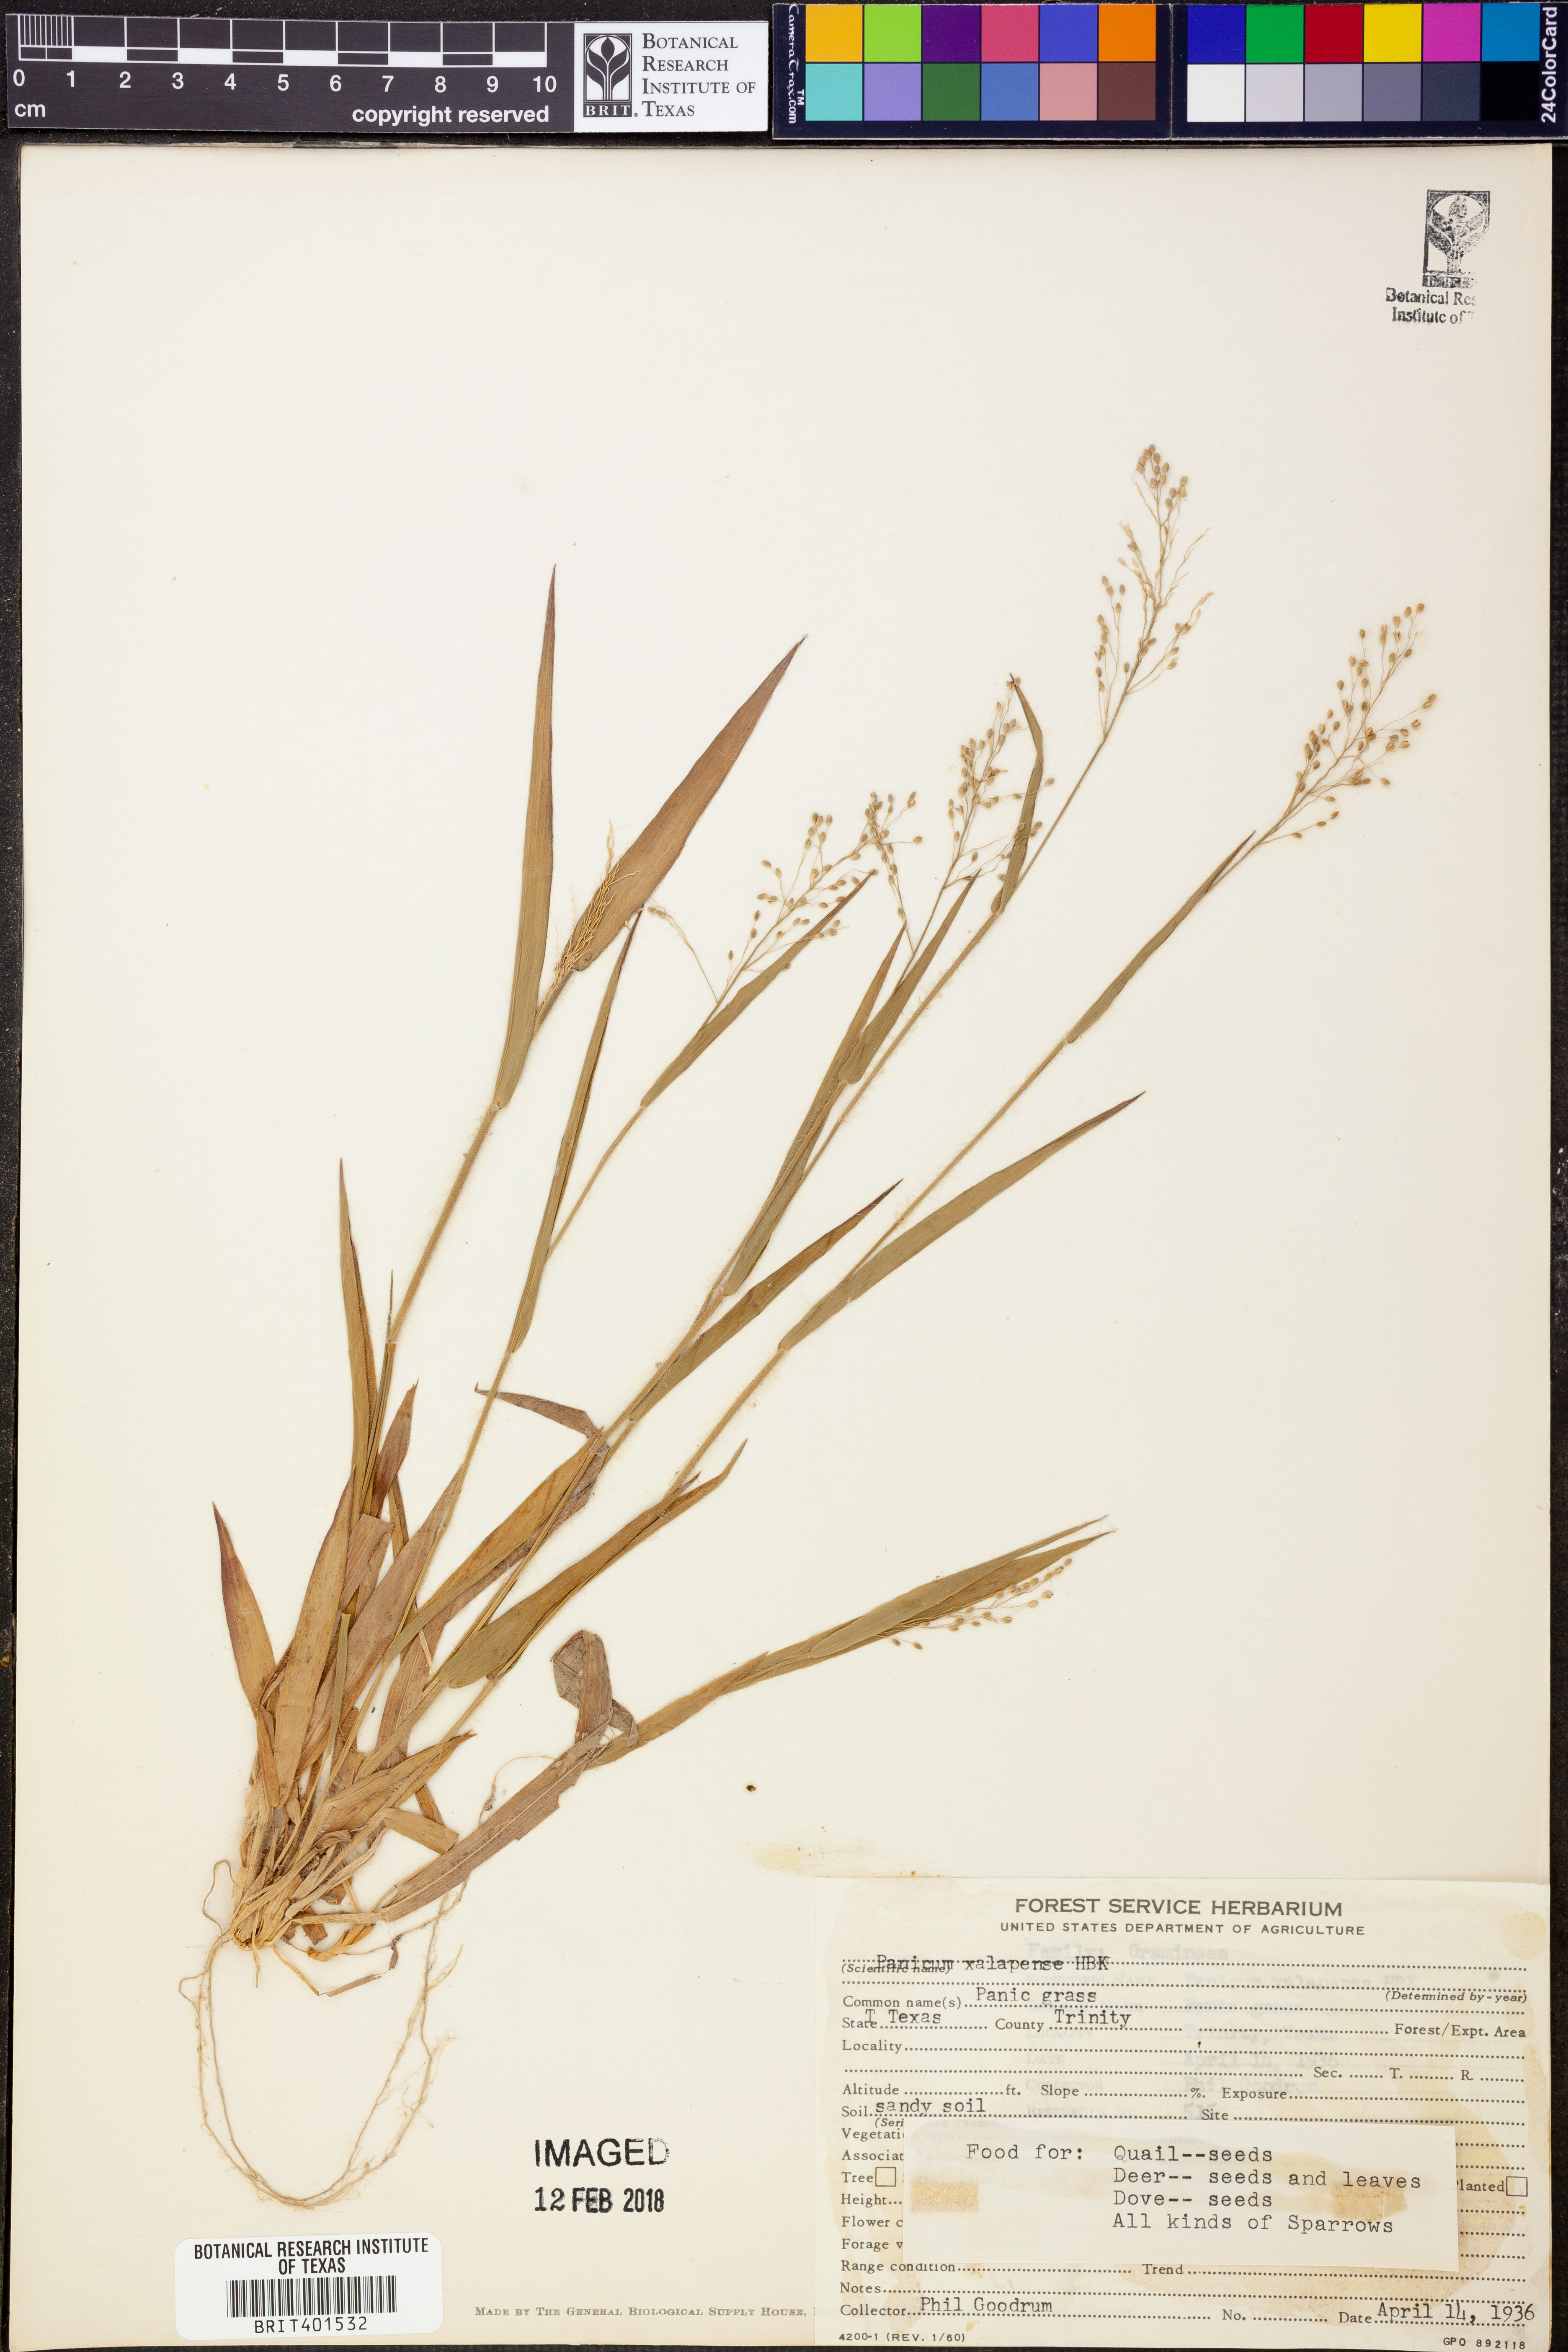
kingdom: Plantae
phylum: Tracheophyta
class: Liliopsida
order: Poales
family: Poaceae
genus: Dichanthelium
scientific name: Dichanthelium xalapense
